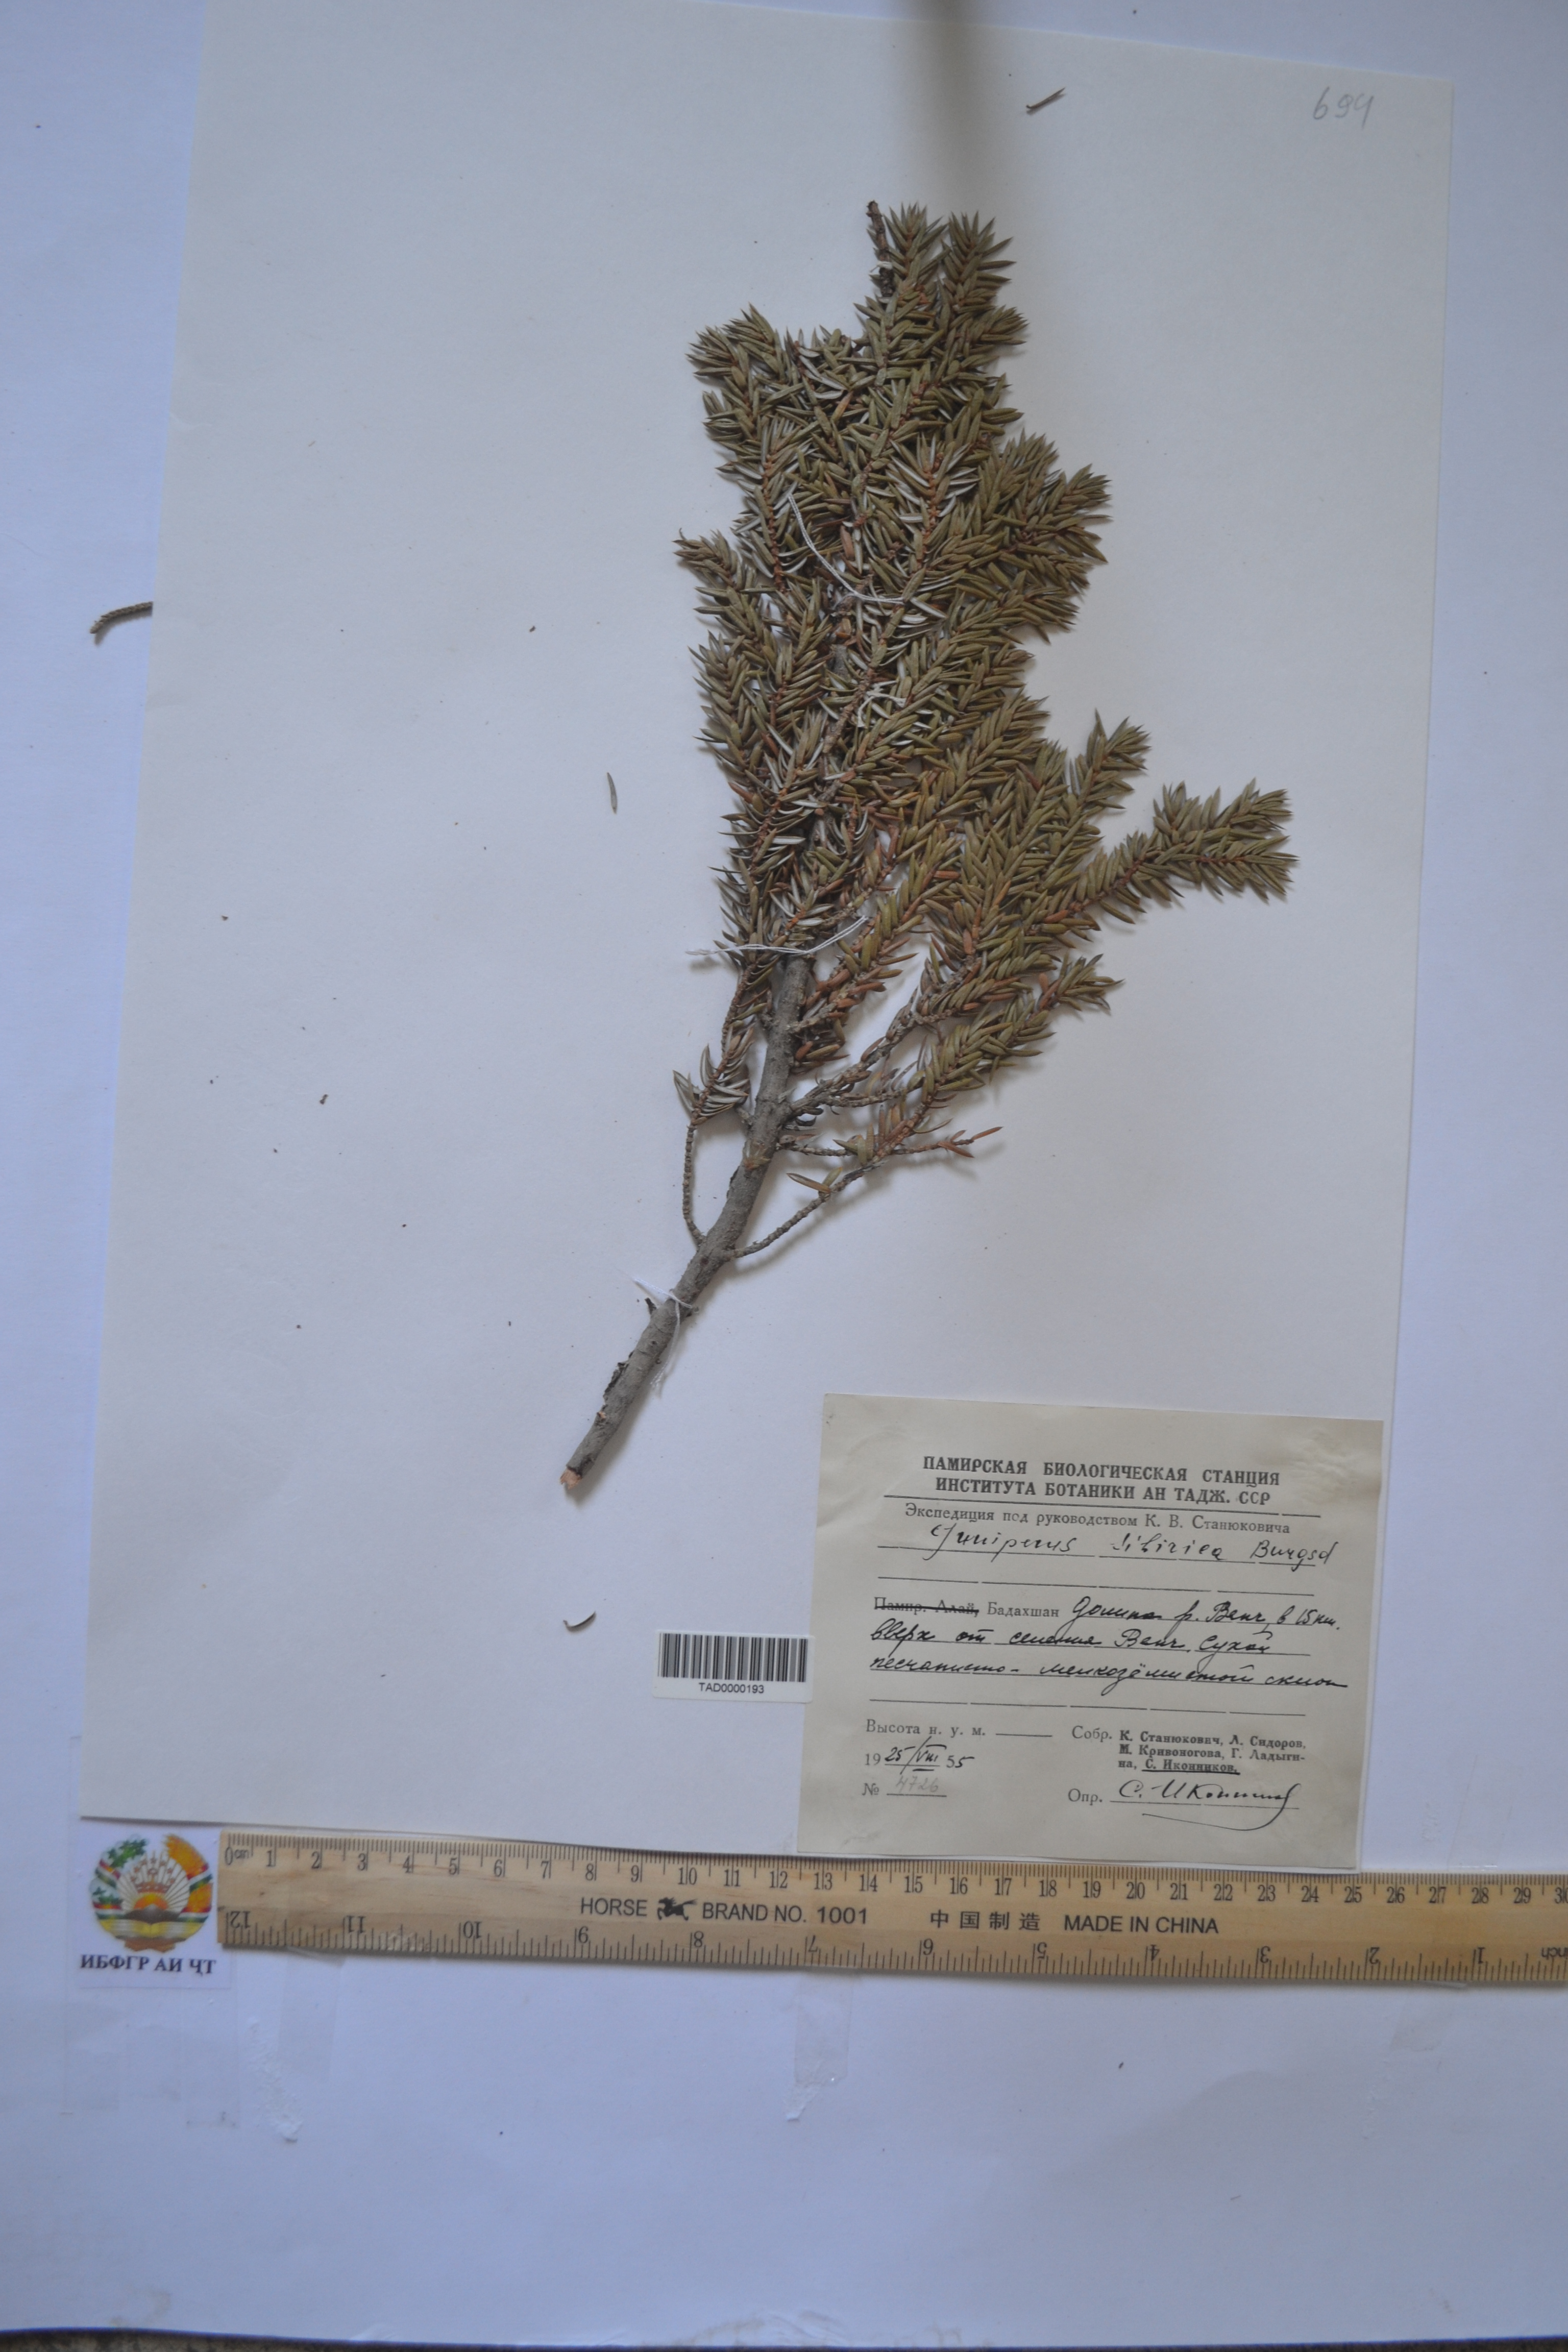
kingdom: Plantae
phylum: Tracheophyta
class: Pinopsida
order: Pinales
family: Cupressaceae
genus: Juniperus
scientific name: Juniperus communis
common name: Common juniper
